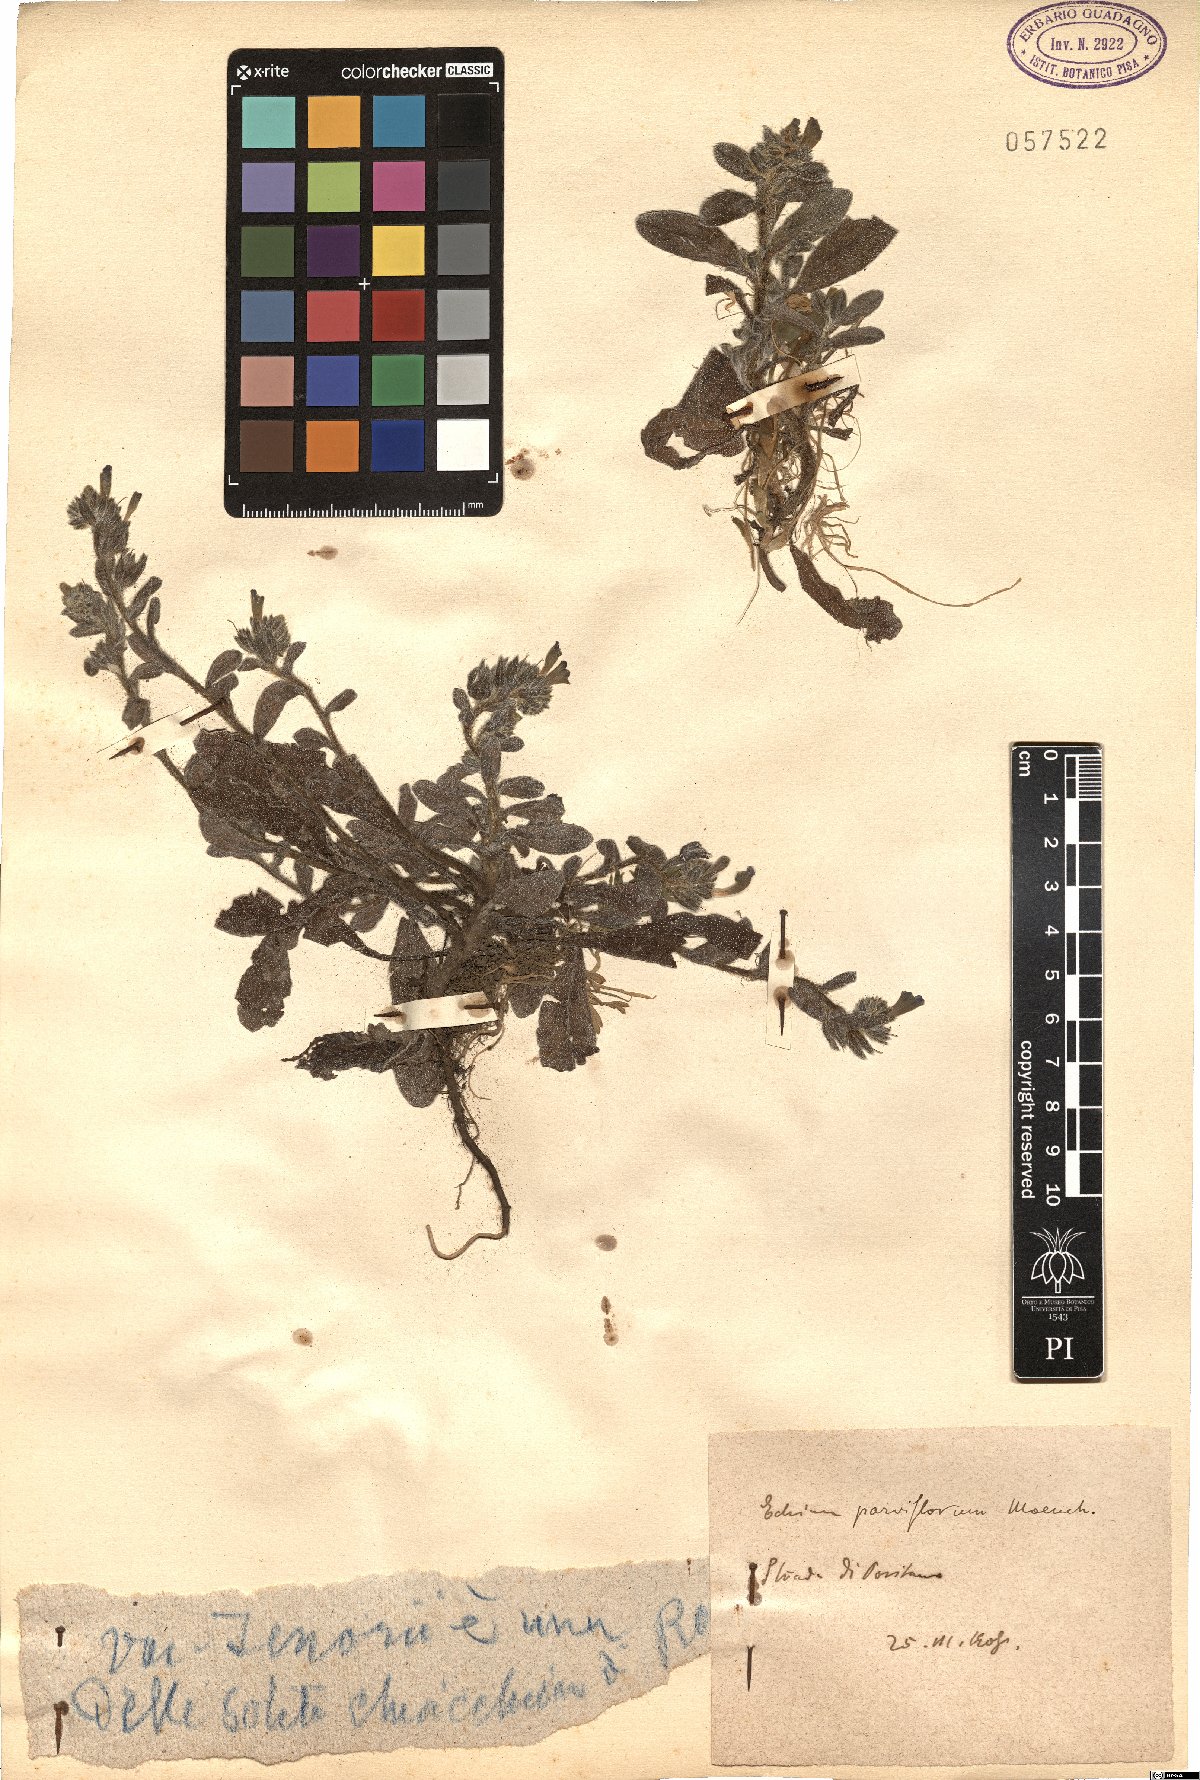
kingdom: Plantae
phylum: Tracheophyta
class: Magnoliopsida
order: Boraginales
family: Boraginaceae
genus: Echium
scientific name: Echium parviflorum
